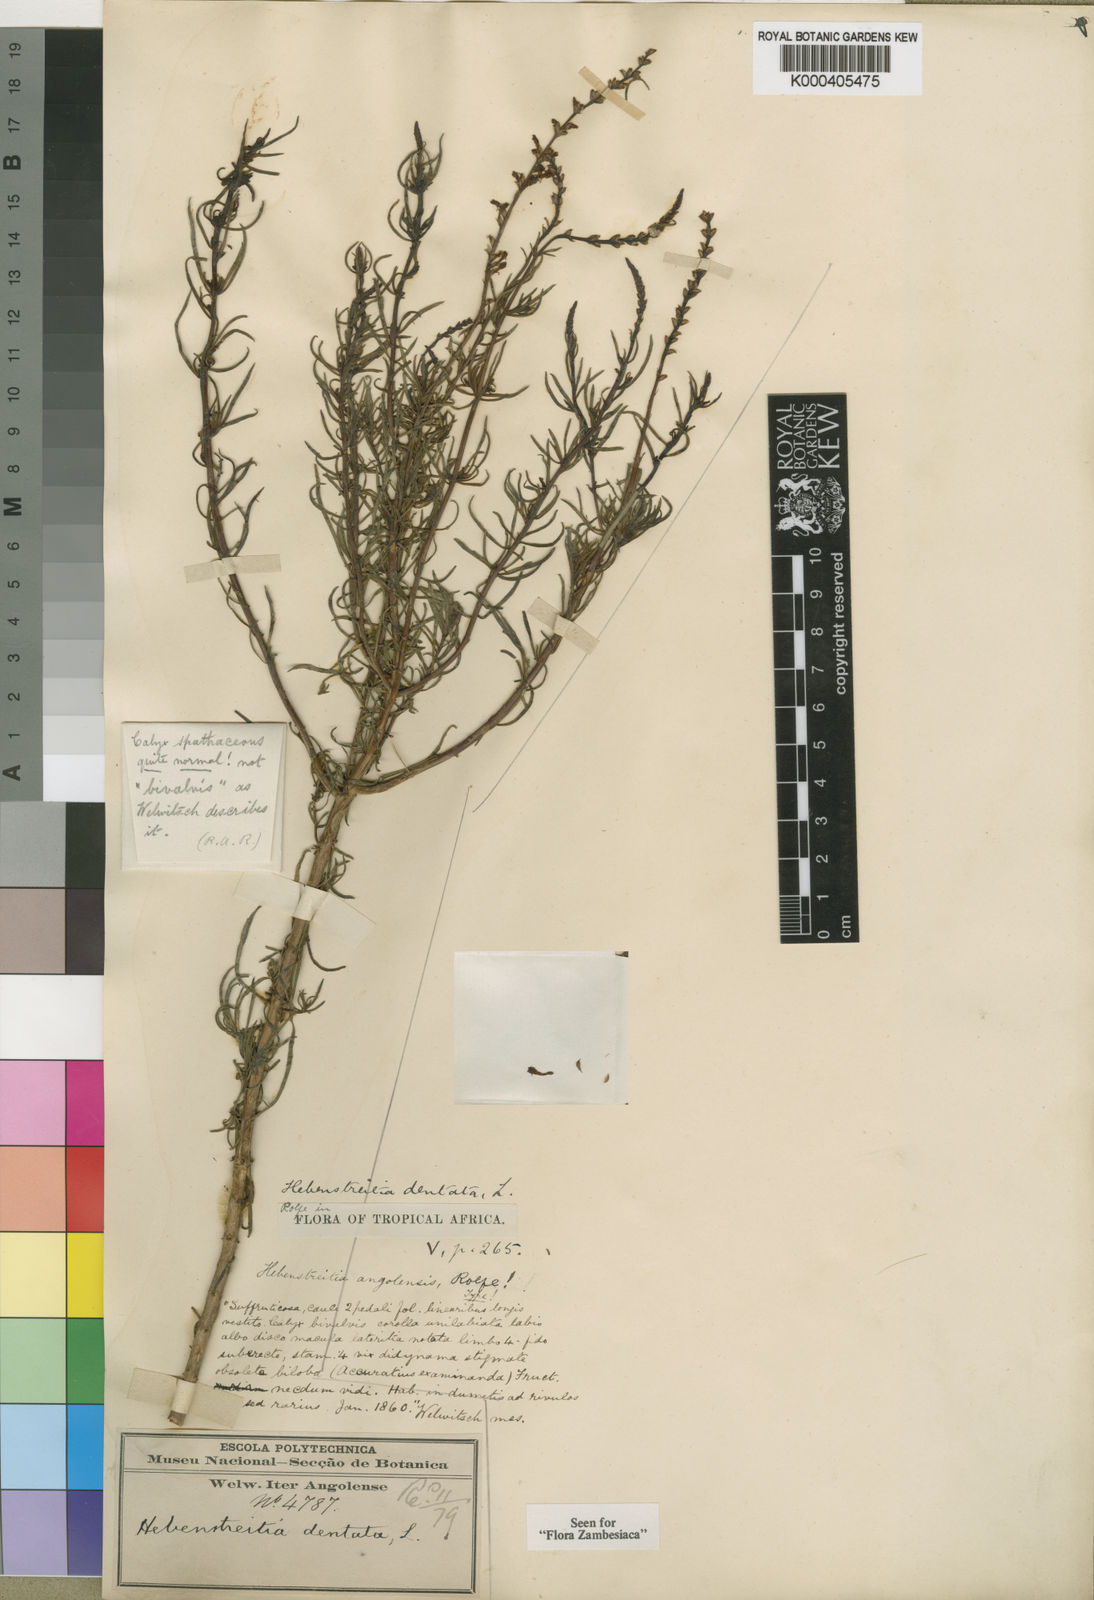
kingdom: Plantae
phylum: Tracheophyta
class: Magnoliopsida
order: Lamiales
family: Scrophulariaceae
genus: Hebenstretia
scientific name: Hebenstretia angolensis
